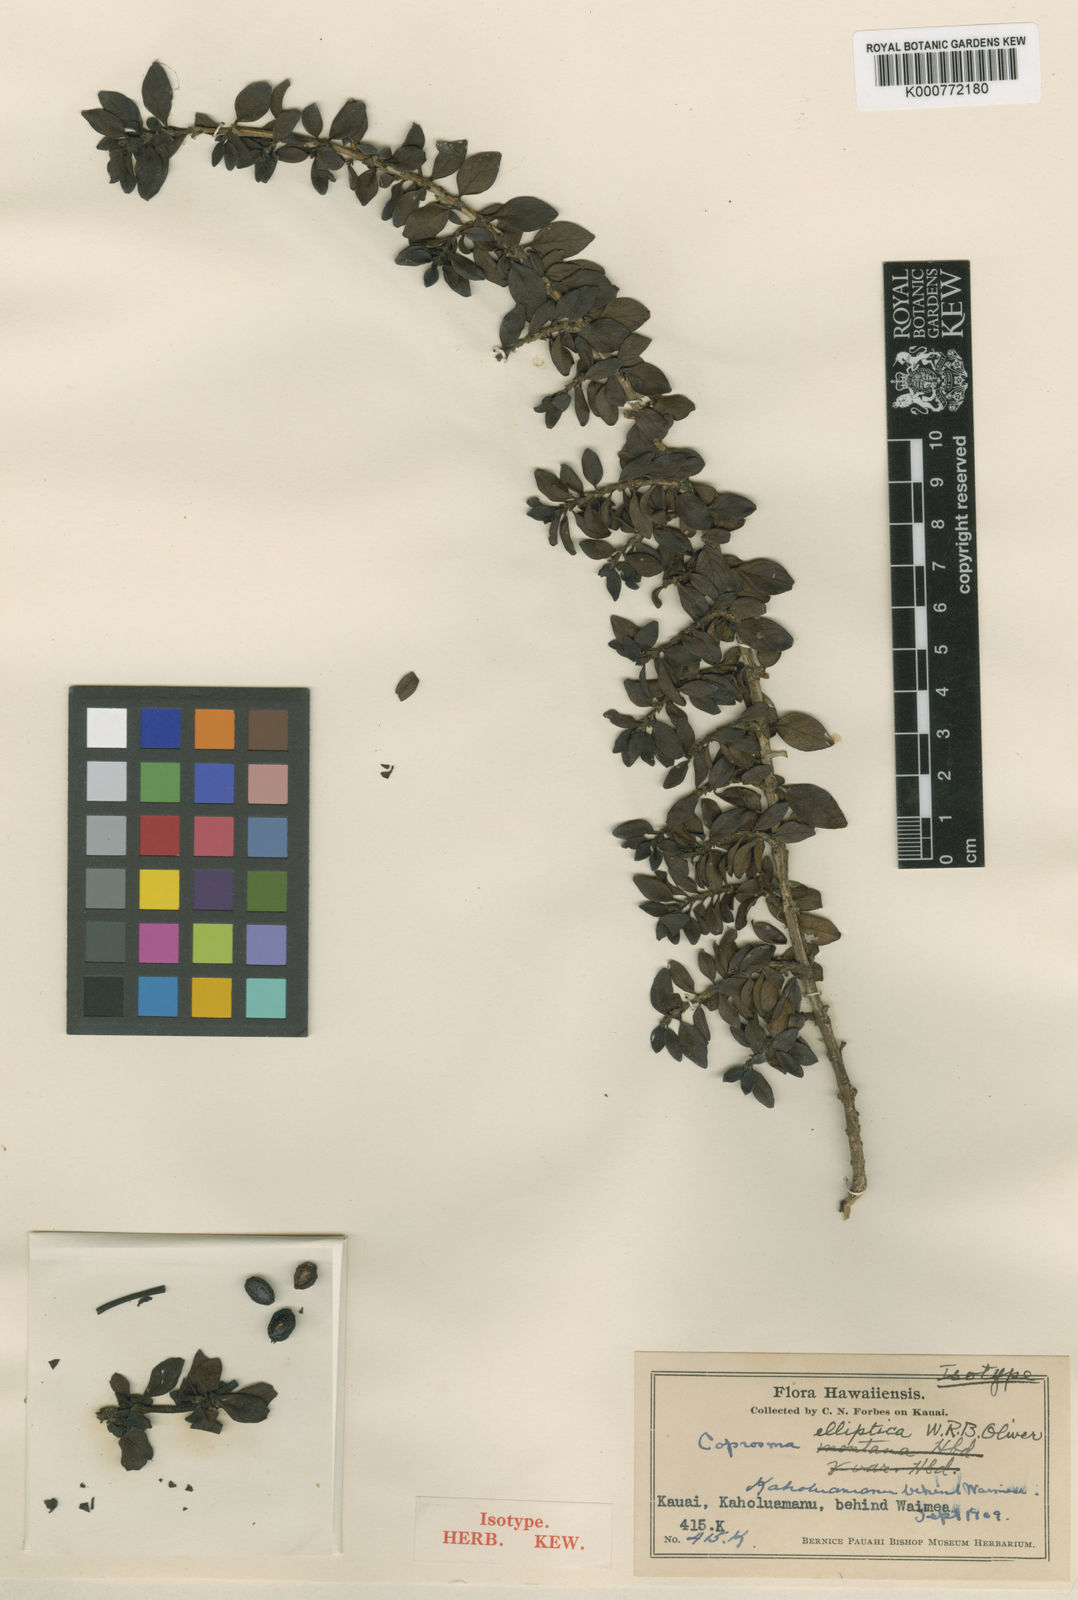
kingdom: Plantae
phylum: Tracheophyta
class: Magnoliopsida
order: Gentianales
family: Rubiaceae
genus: Coprosma
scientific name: Coprosma elliptica
